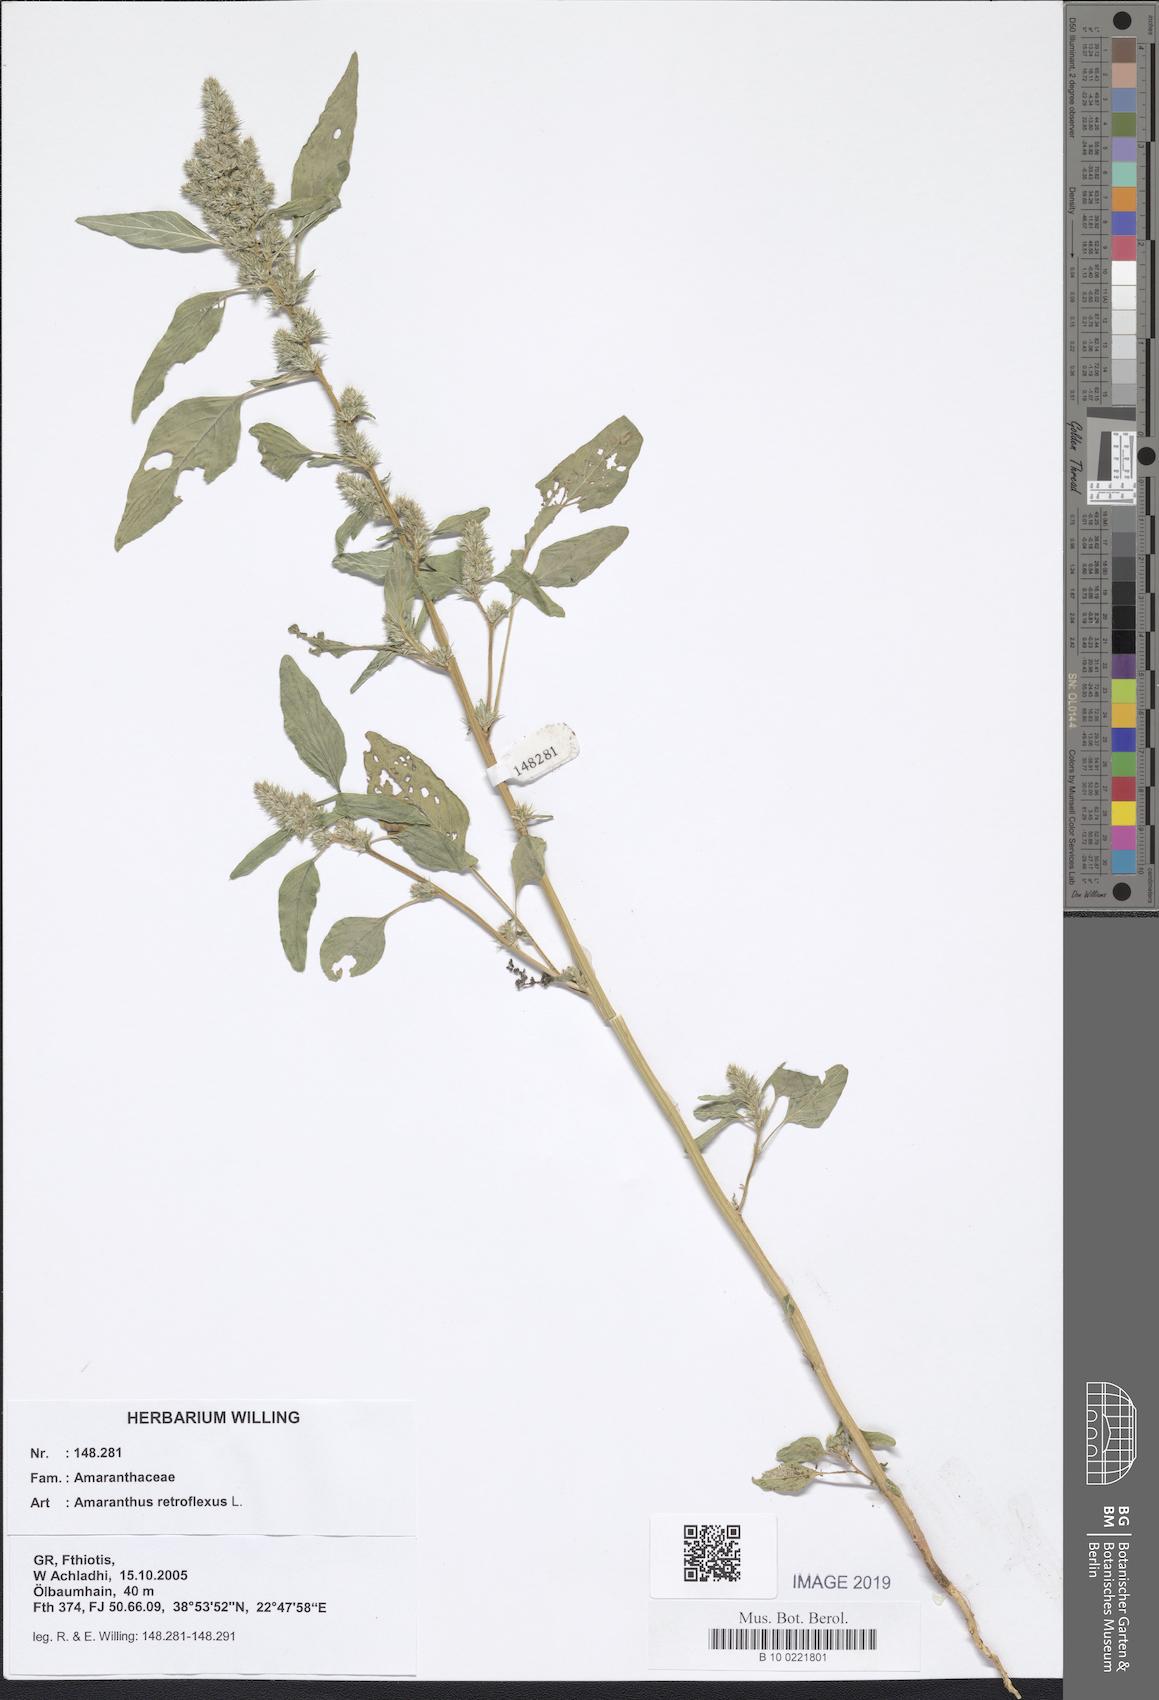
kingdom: Plantae
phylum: Tracheophyta
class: Magnoliopsida
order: Caryophyllales
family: Amaranthaceae
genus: Amaranthus
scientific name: Amaranthus retroflexus
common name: Redroot amaranth
